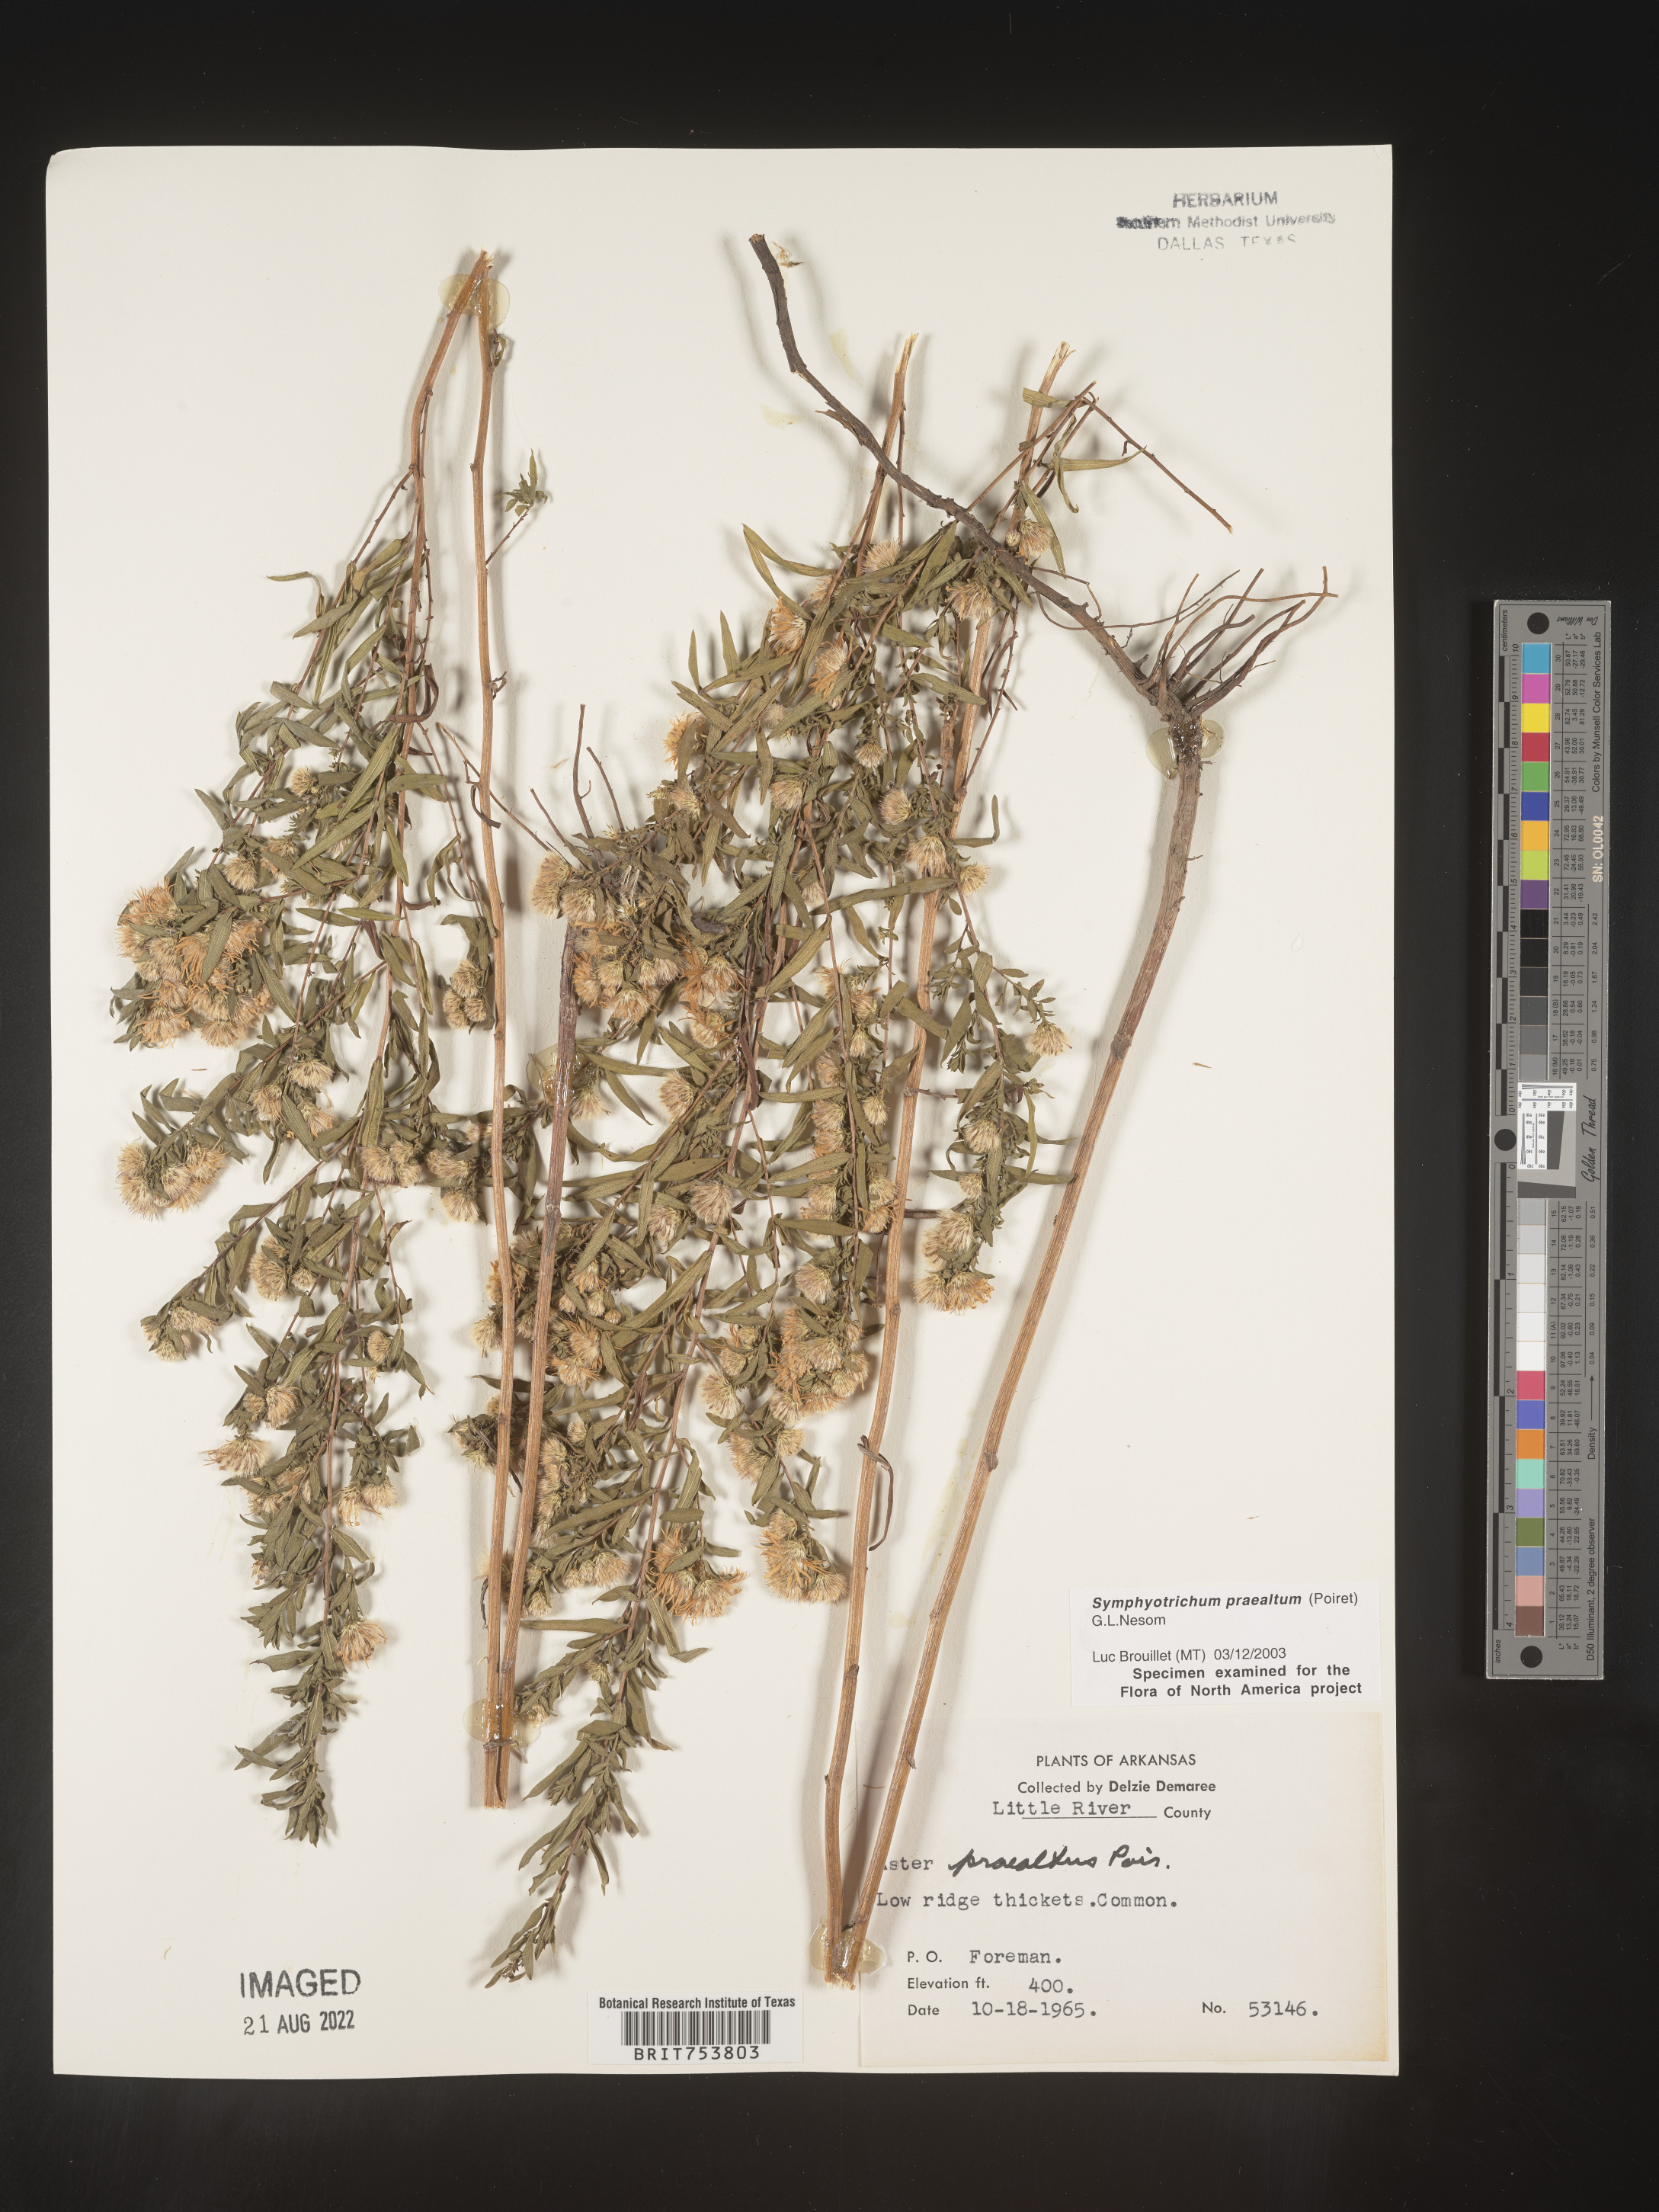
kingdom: Plantae
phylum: Tracheophyta
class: Magnoliopsida
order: Asterales
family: Asteraceae
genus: Symphyotrichum
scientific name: Symphyotrichum praealtum
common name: Willow aster
